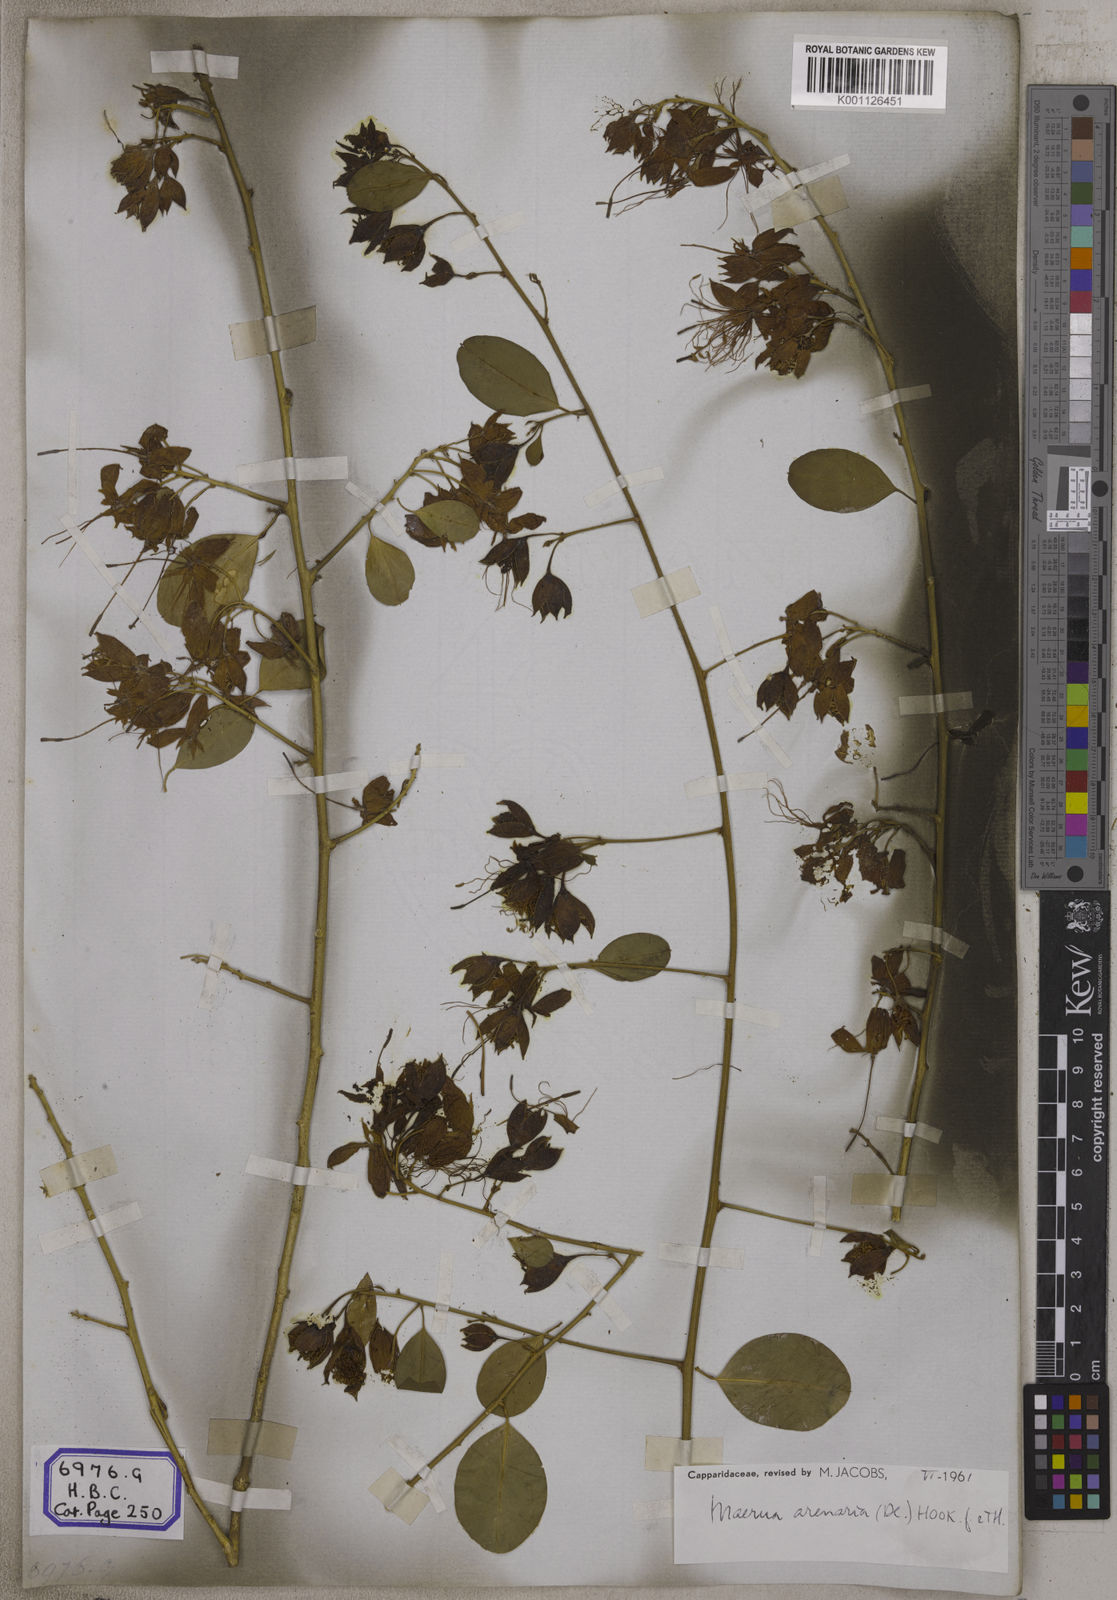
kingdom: Plantae
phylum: Tracheophyta
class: Magnoliopsida
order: Brassicales
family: Capparaceae
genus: Maerua
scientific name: Maerua oblongifolia
